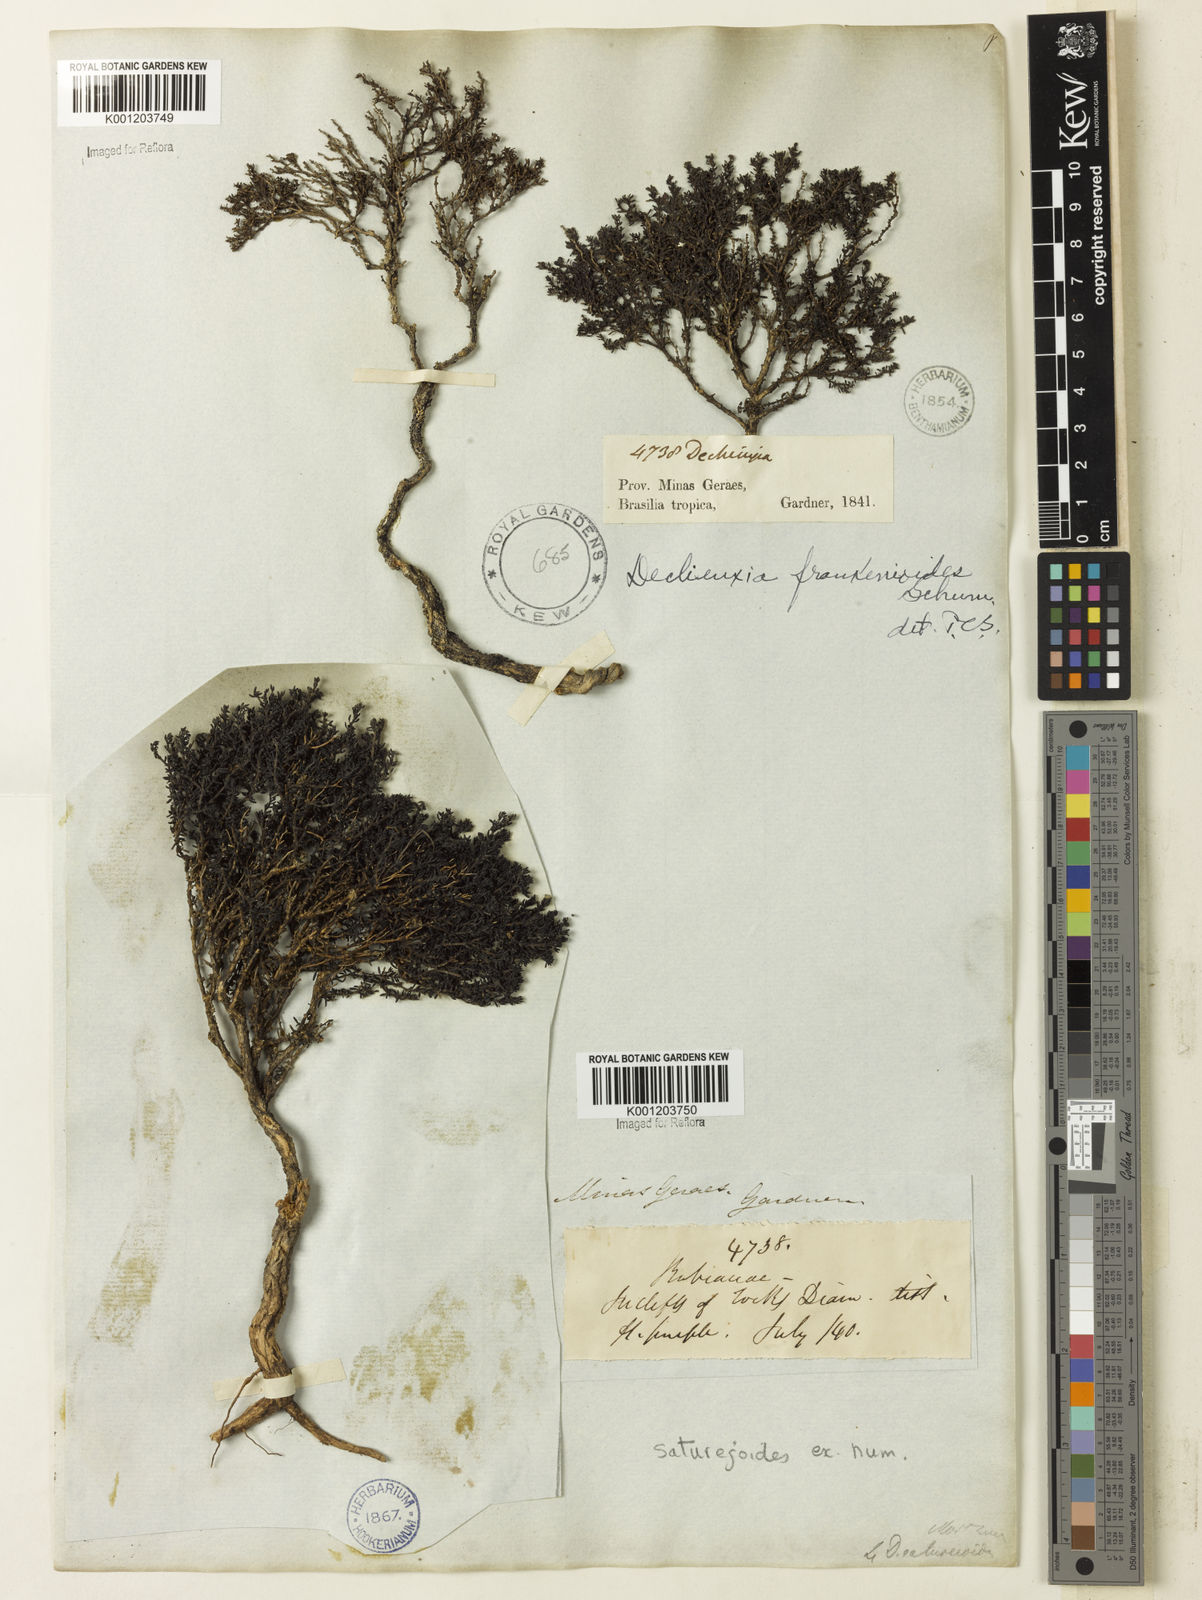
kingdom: Plantae
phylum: Tracheophyta
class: Magnoliopsida
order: Gentianales
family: Rubiaceae
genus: Declieuxia
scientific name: Declieuxia
